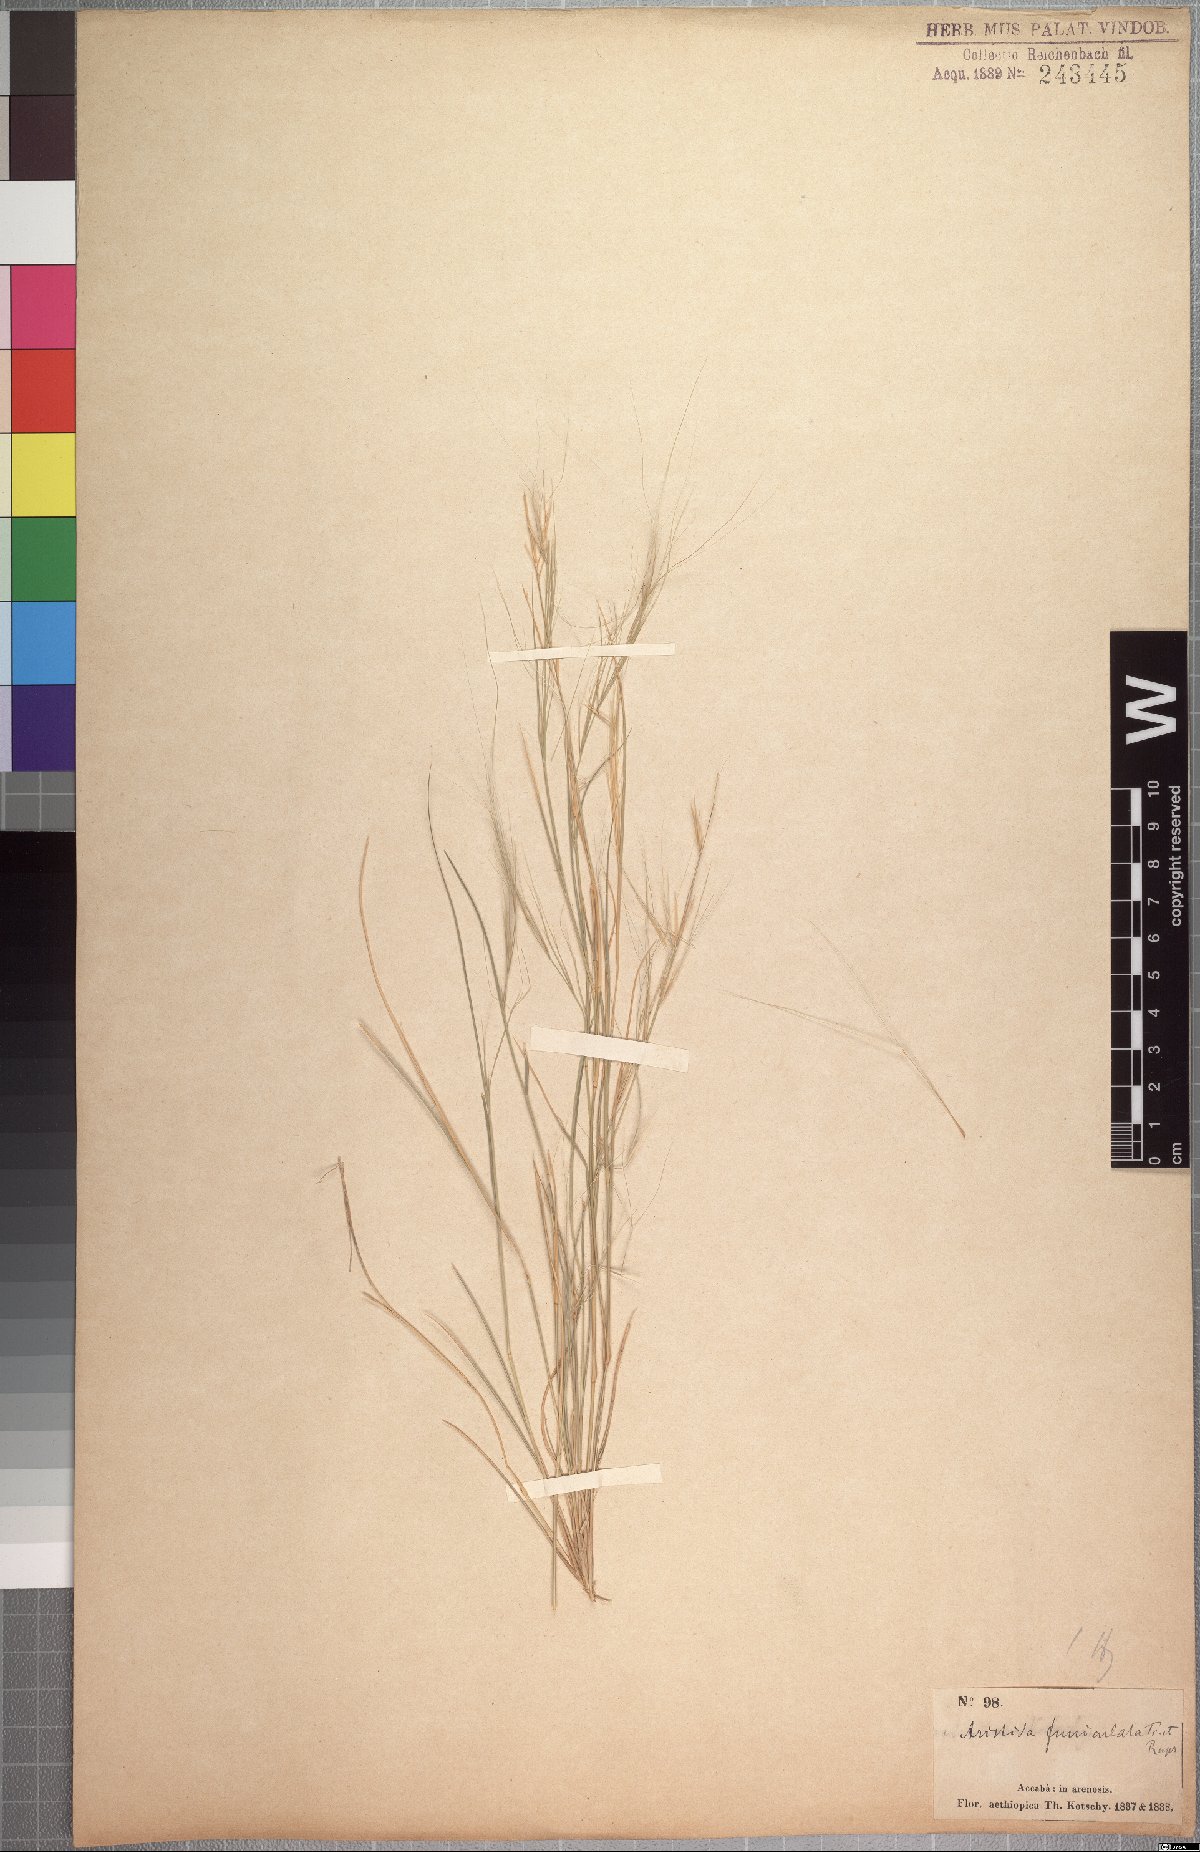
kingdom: Plantae
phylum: Tracheophyta
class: Liliopsida
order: Poales
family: Poaceae
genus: Aristida
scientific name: Aristida funiculata
